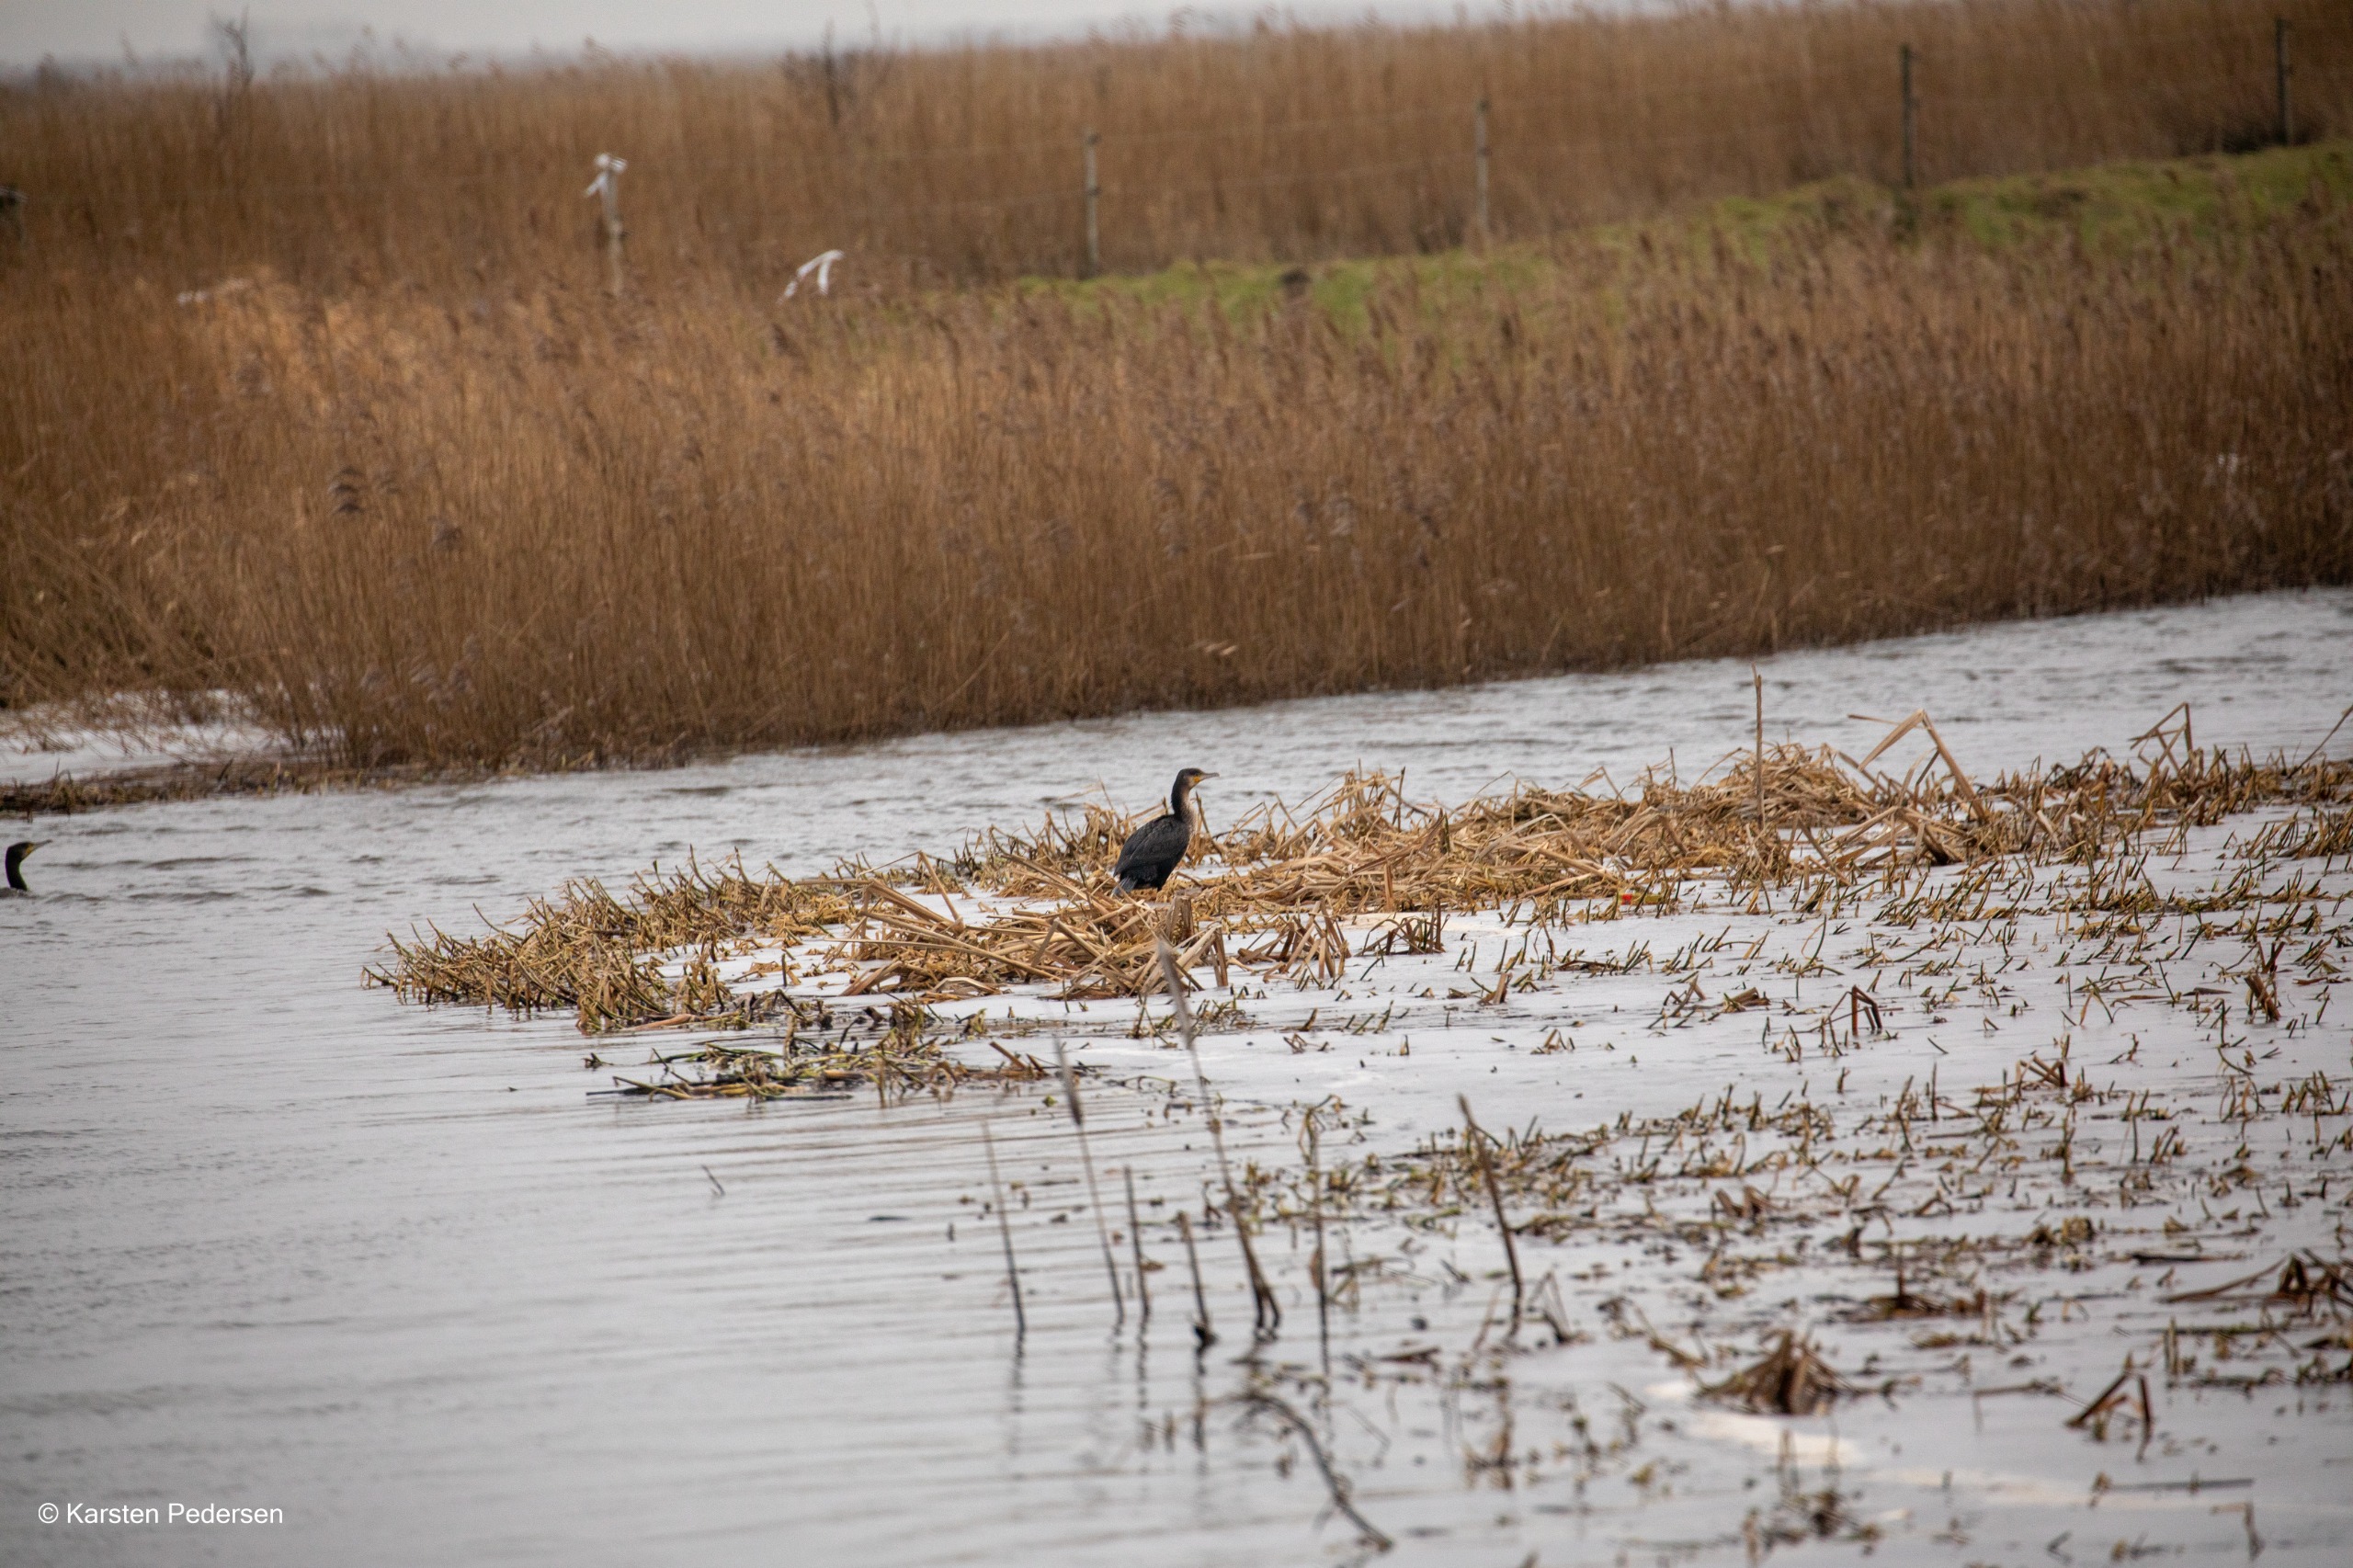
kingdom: Animalia
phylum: Chordata
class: Aves
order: Suliformes
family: Phalacrocoracidae
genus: Phalacrocorax
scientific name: Phalacrocorax carbo
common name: Skarv
